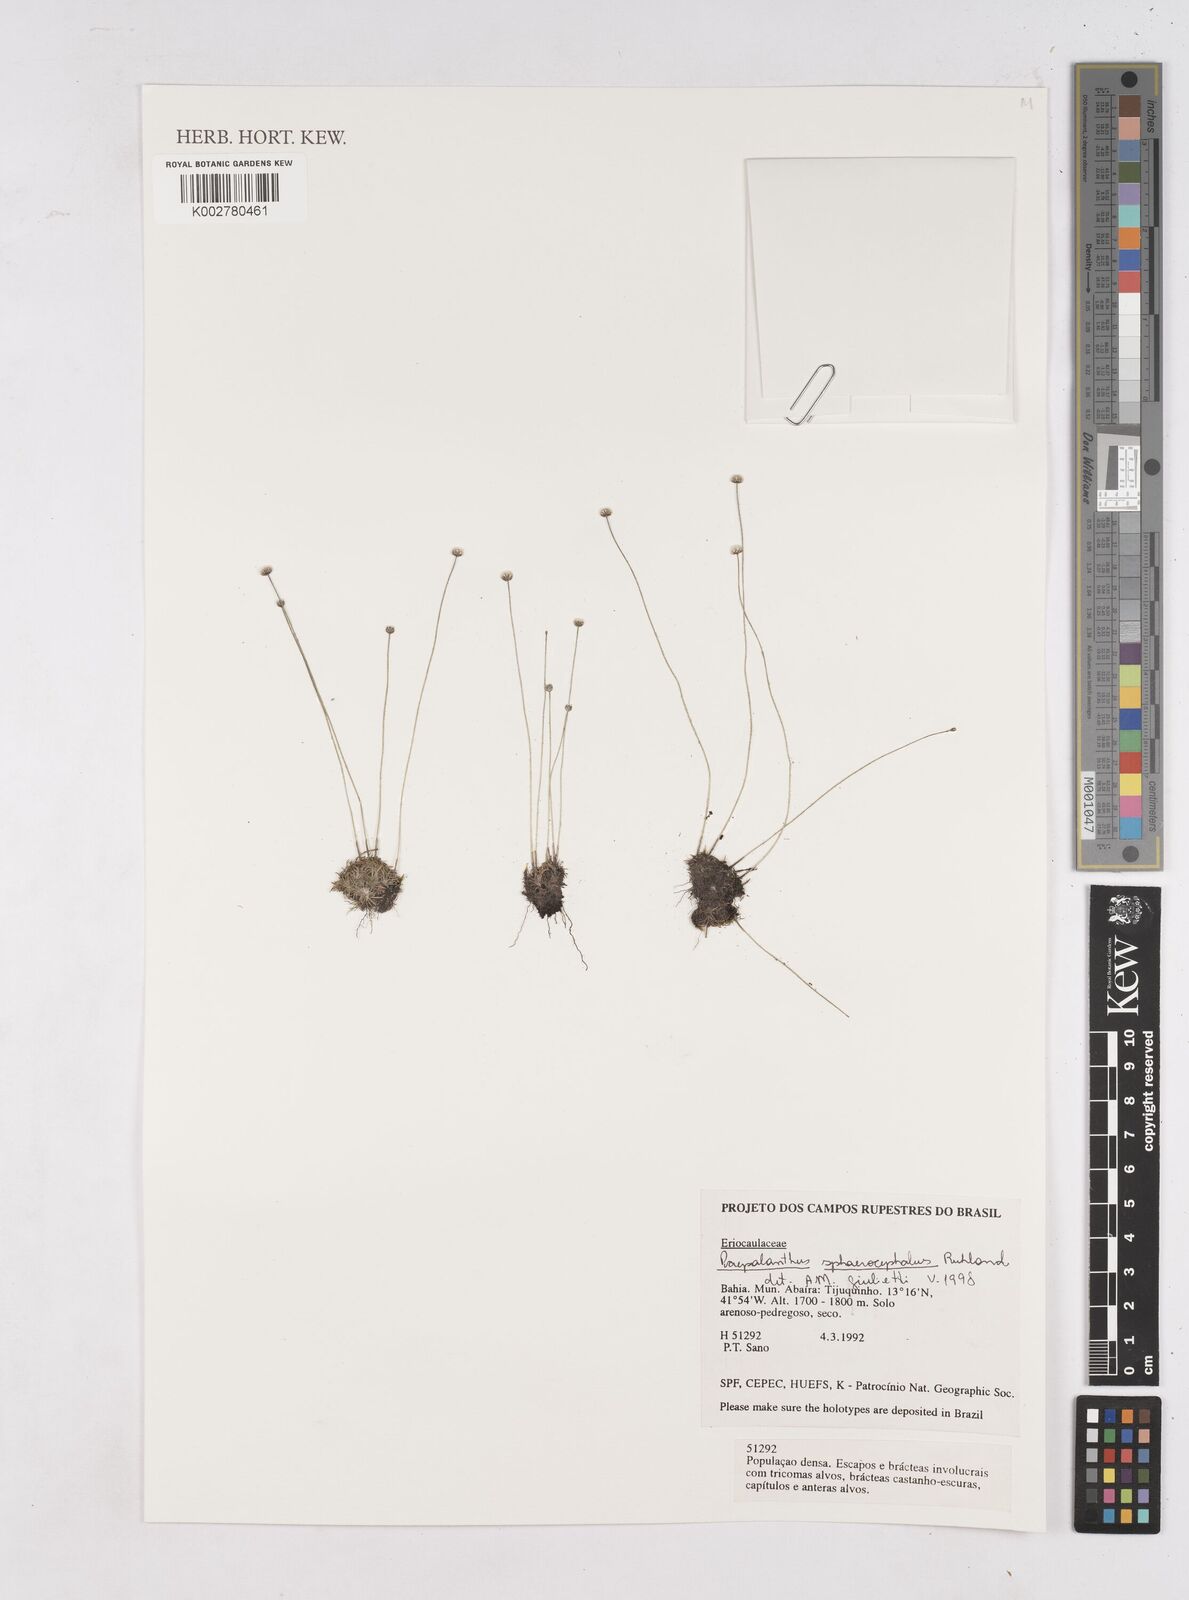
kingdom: Plantae
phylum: Tracheophyta
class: Liliopsida
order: Poales
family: Eriocaulaceae
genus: Paepalanthus
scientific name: Paepalanthus sphaerocephalus
